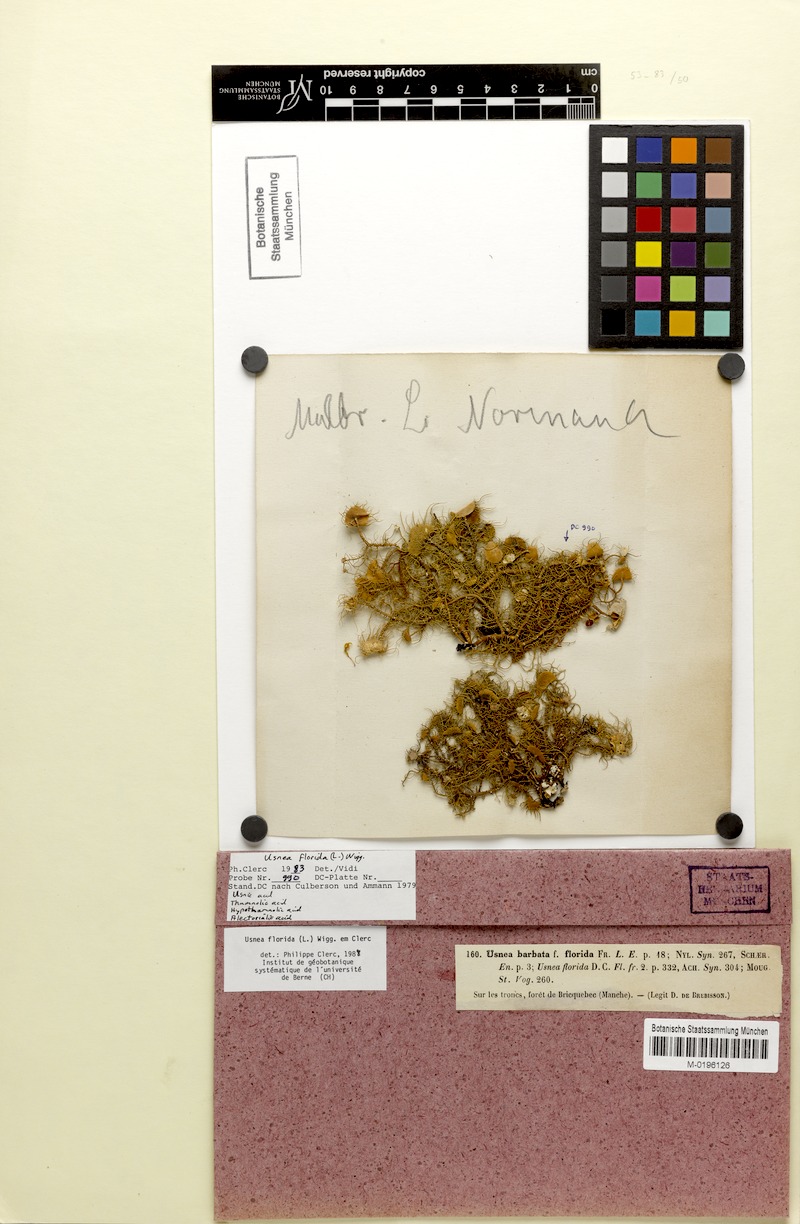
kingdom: Fungi
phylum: Ascomycota
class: Lecanoromycetes
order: Lecanorales
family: Parmeliaceae
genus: Usnea
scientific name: Usnea florida
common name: Witches' whiskers lichen
